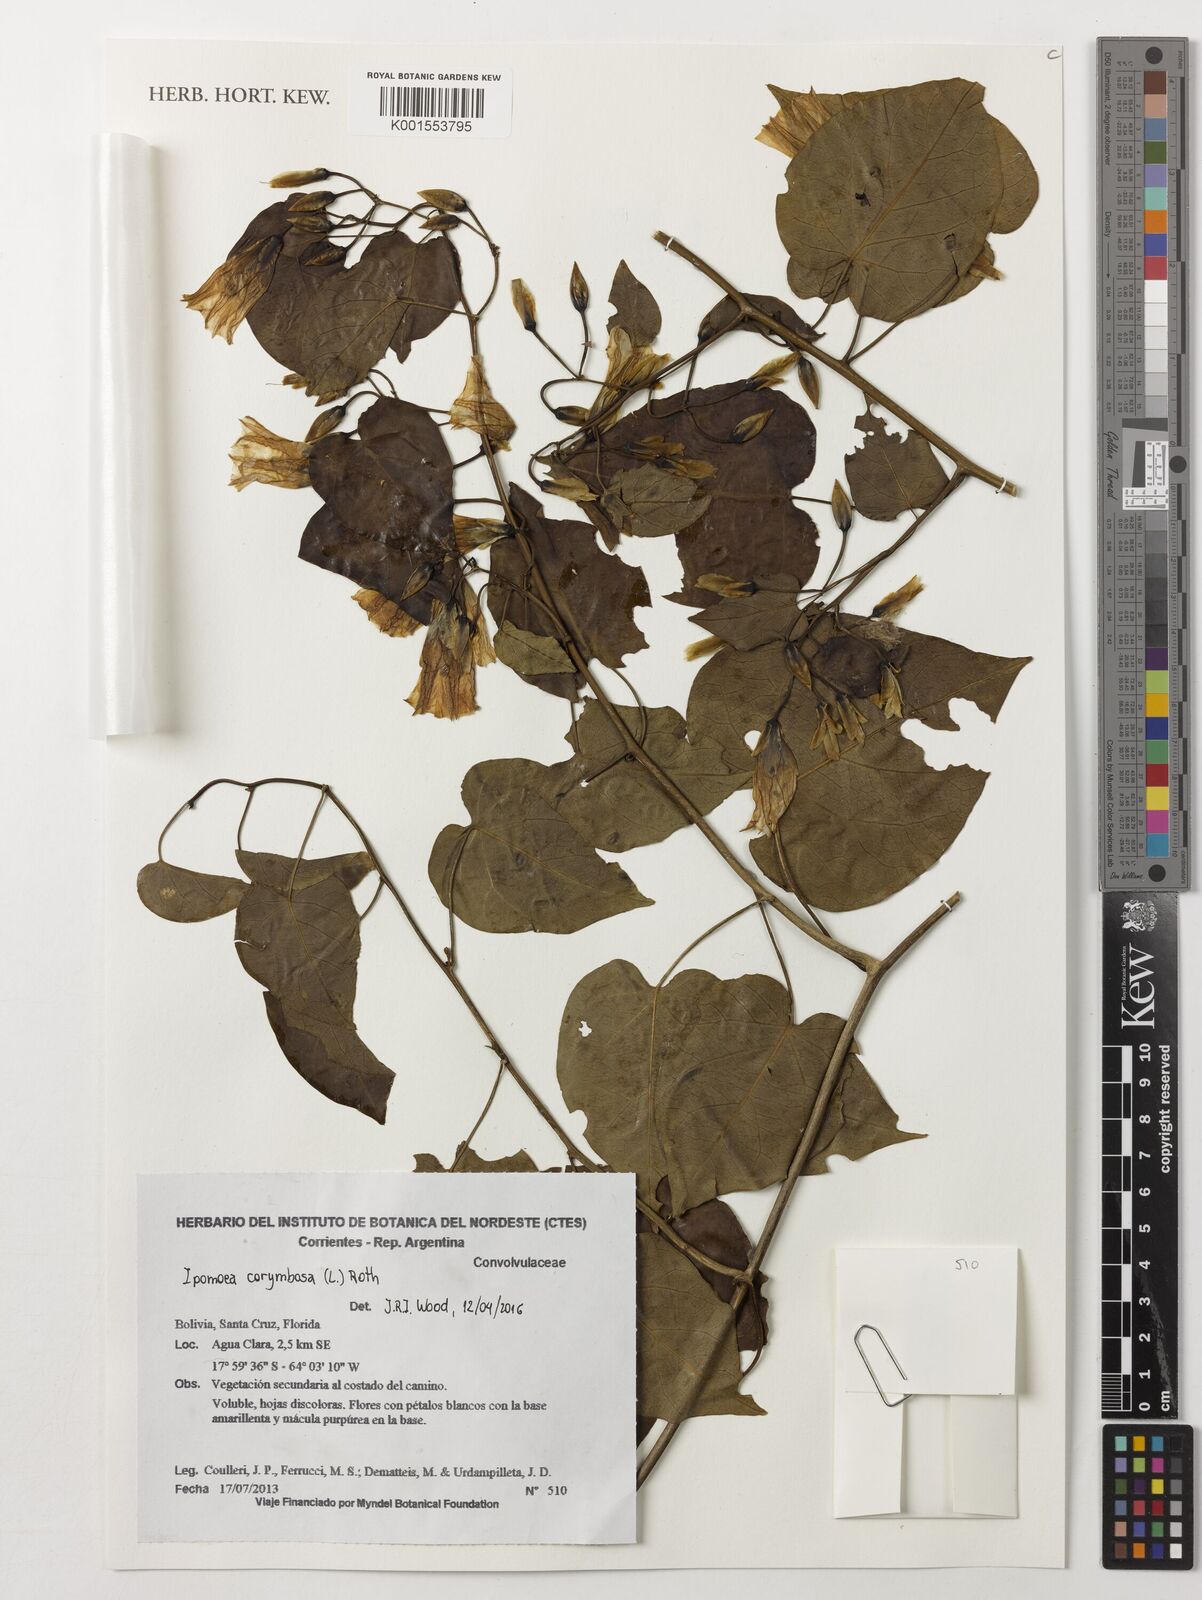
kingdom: Plantae
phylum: Tracheophyta
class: Magnoliopsida
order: Solanales
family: Convolvulaceae
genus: Ipomoea
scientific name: Ipomoea corymbosa
